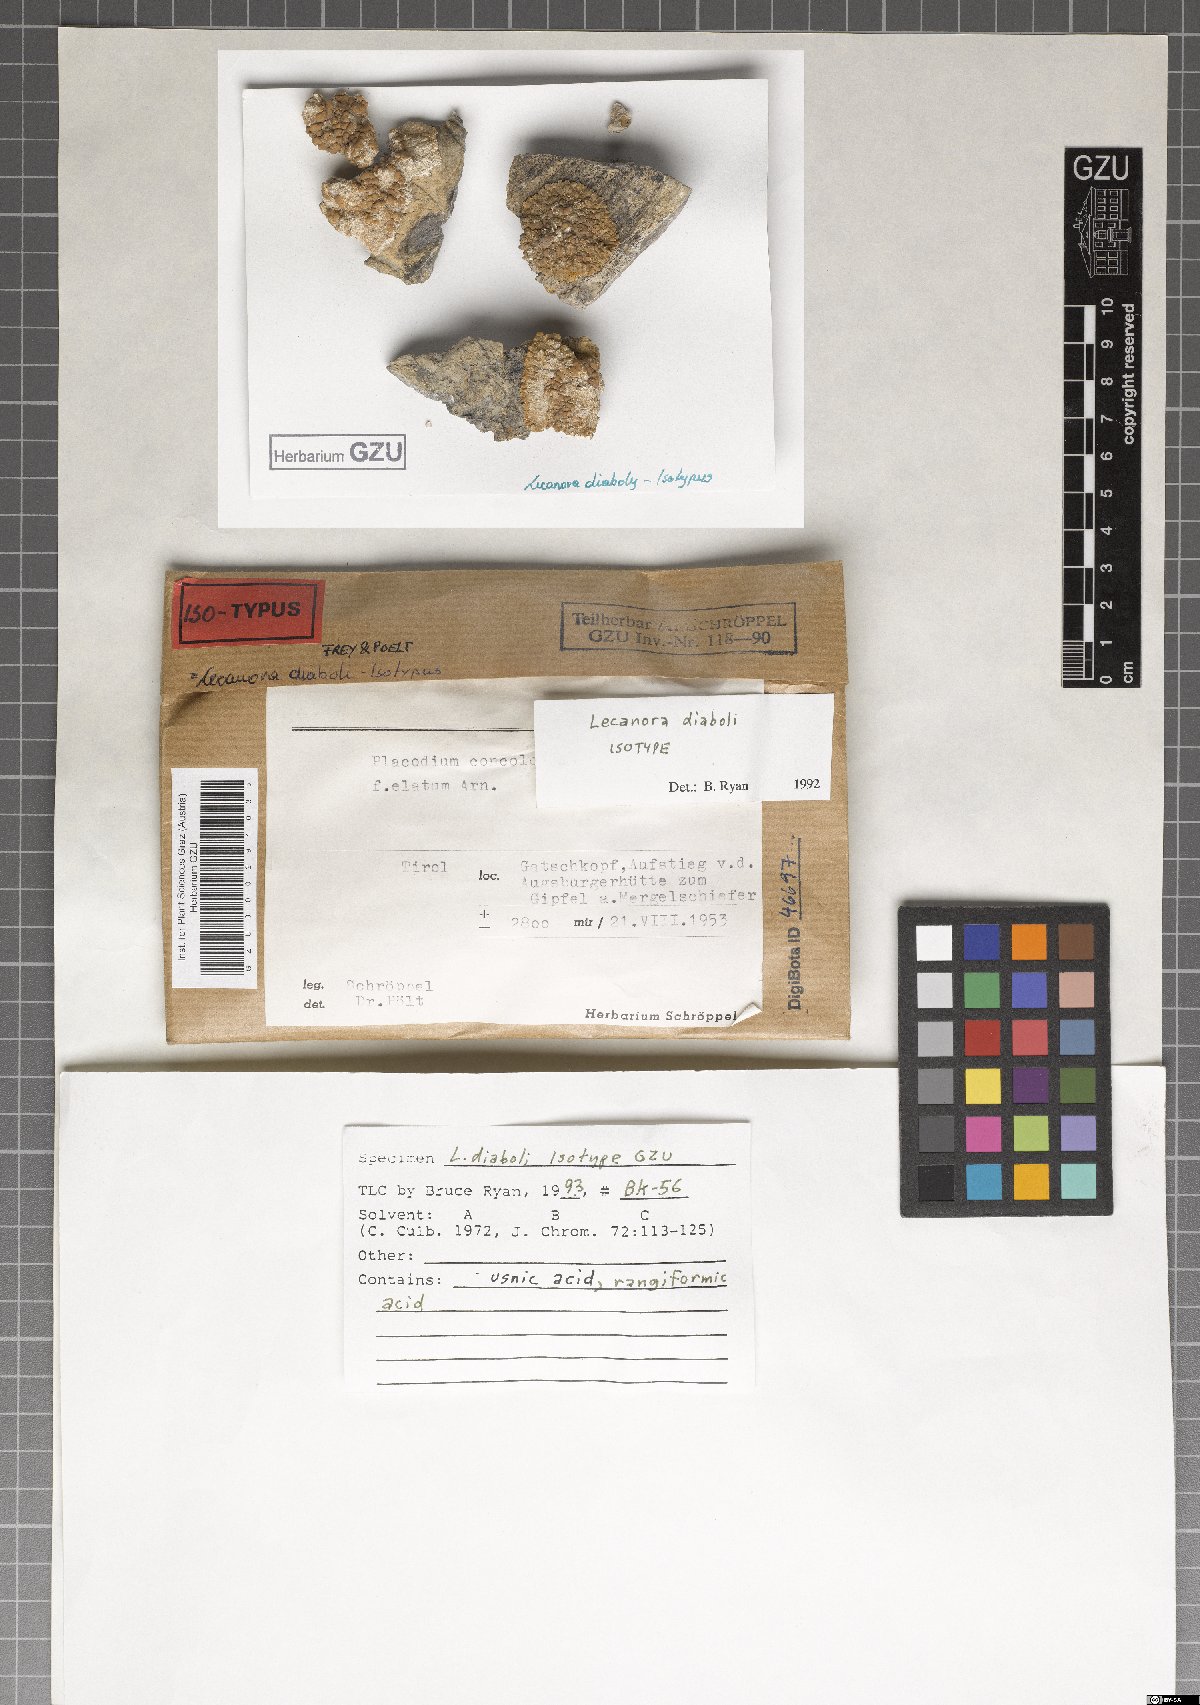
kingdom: Fungi
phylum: Ascomycota
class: Lecanoromycetes
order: Lecanorales
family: Lecanoraceae
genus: Lecanora
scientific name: Lecanora diaboli
